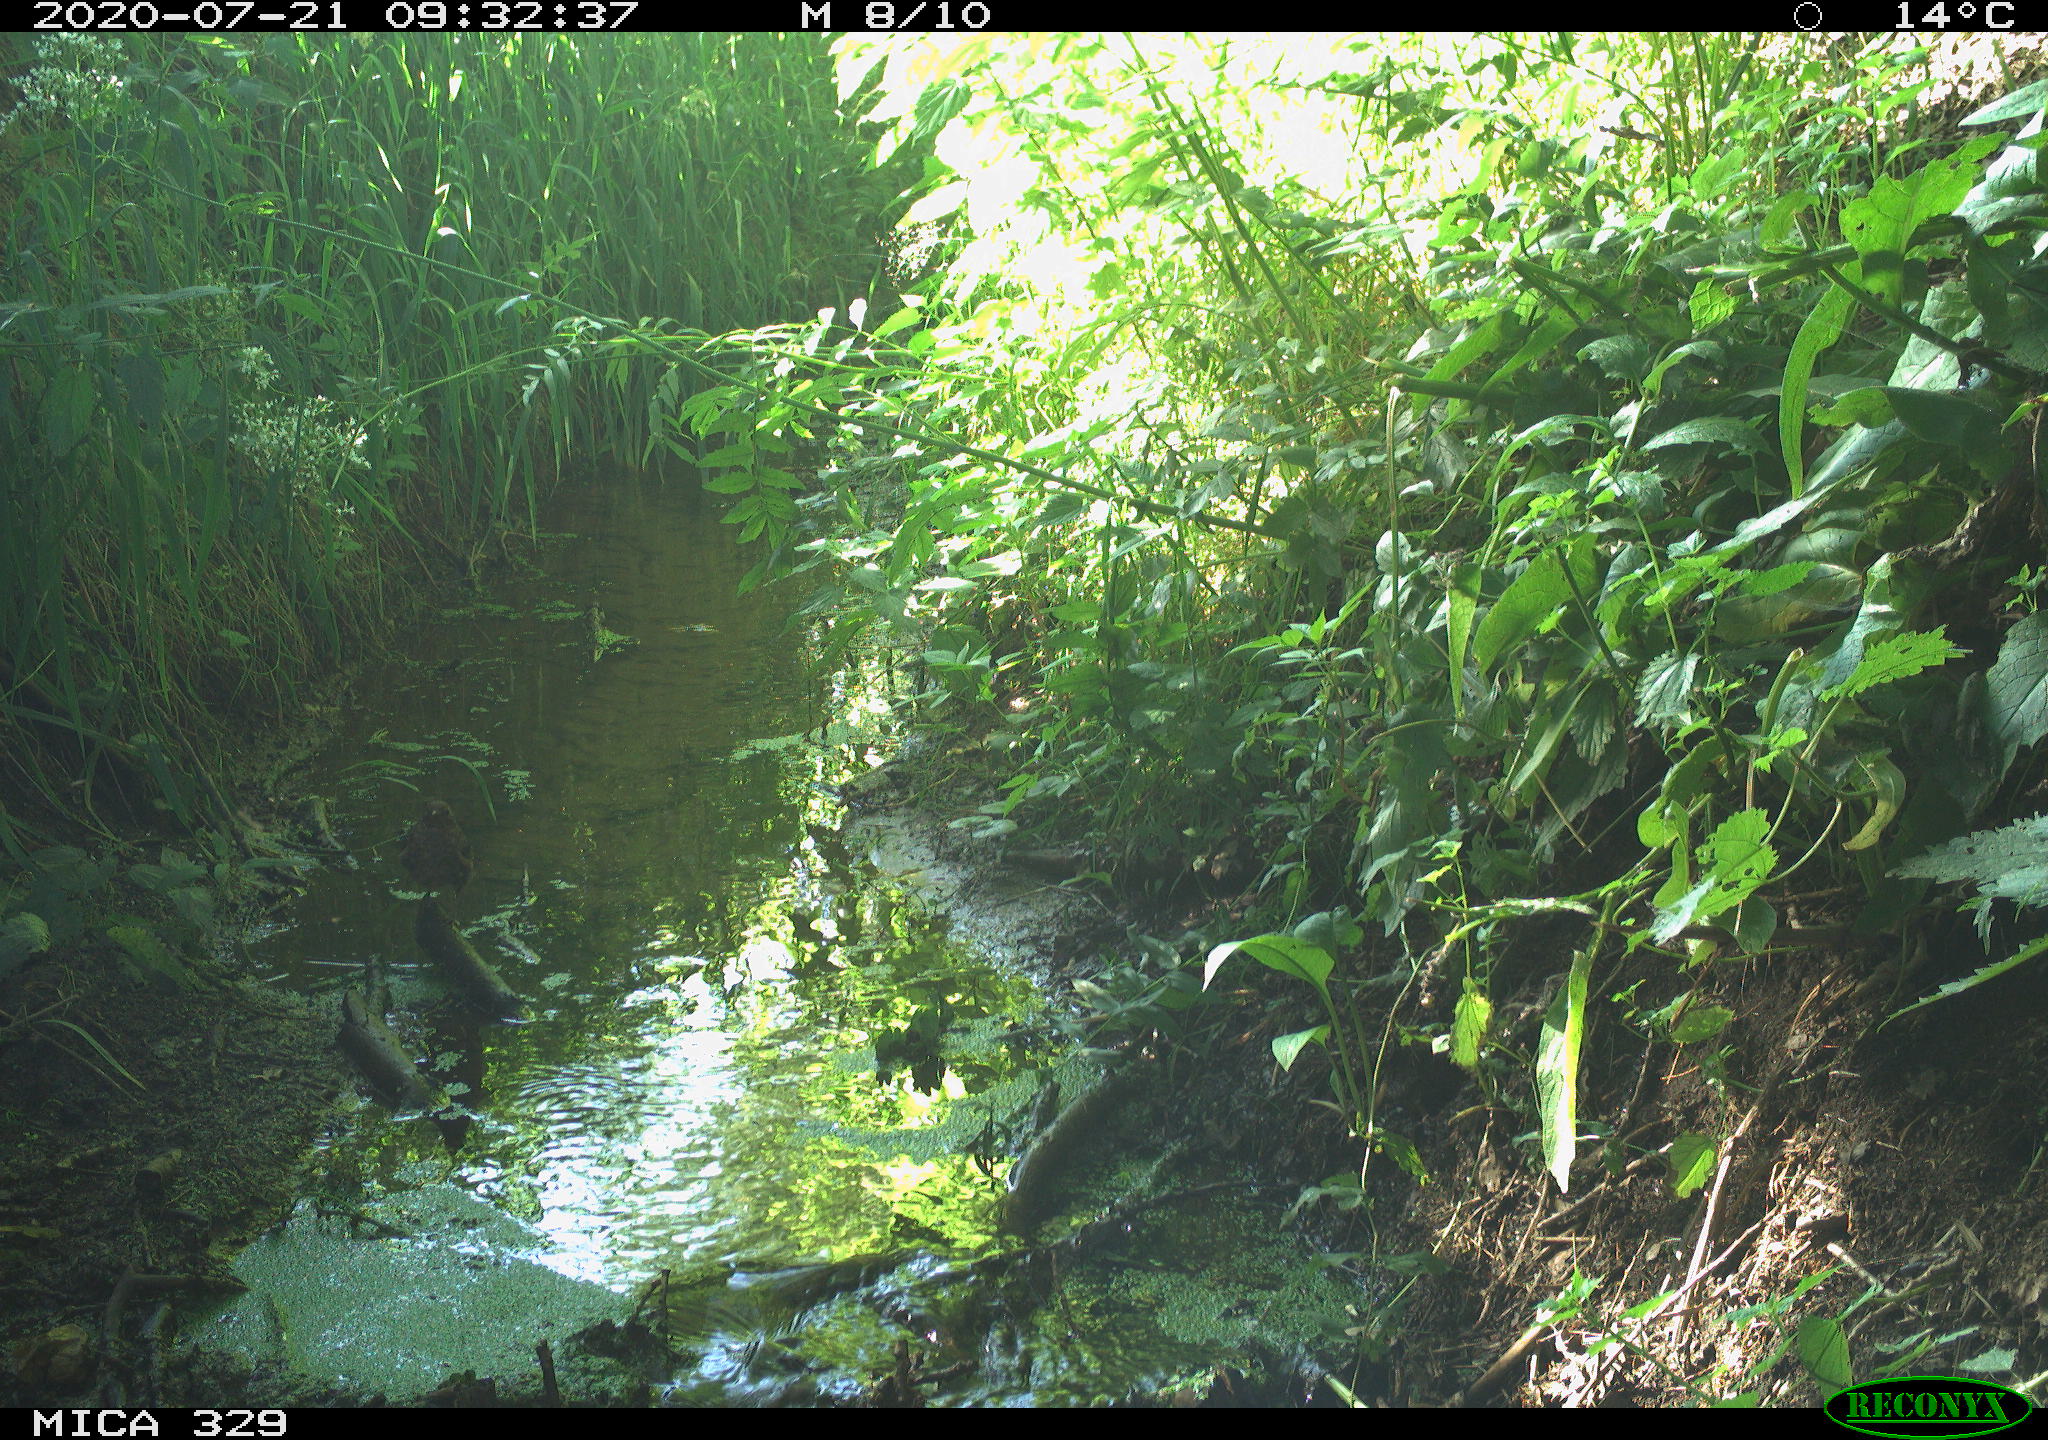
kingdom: Animalia
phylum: Chordata
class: Aves
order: Passeriformes
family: Turdidae
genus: Turdus
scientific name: Turdus philomelos
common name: Song thrush
